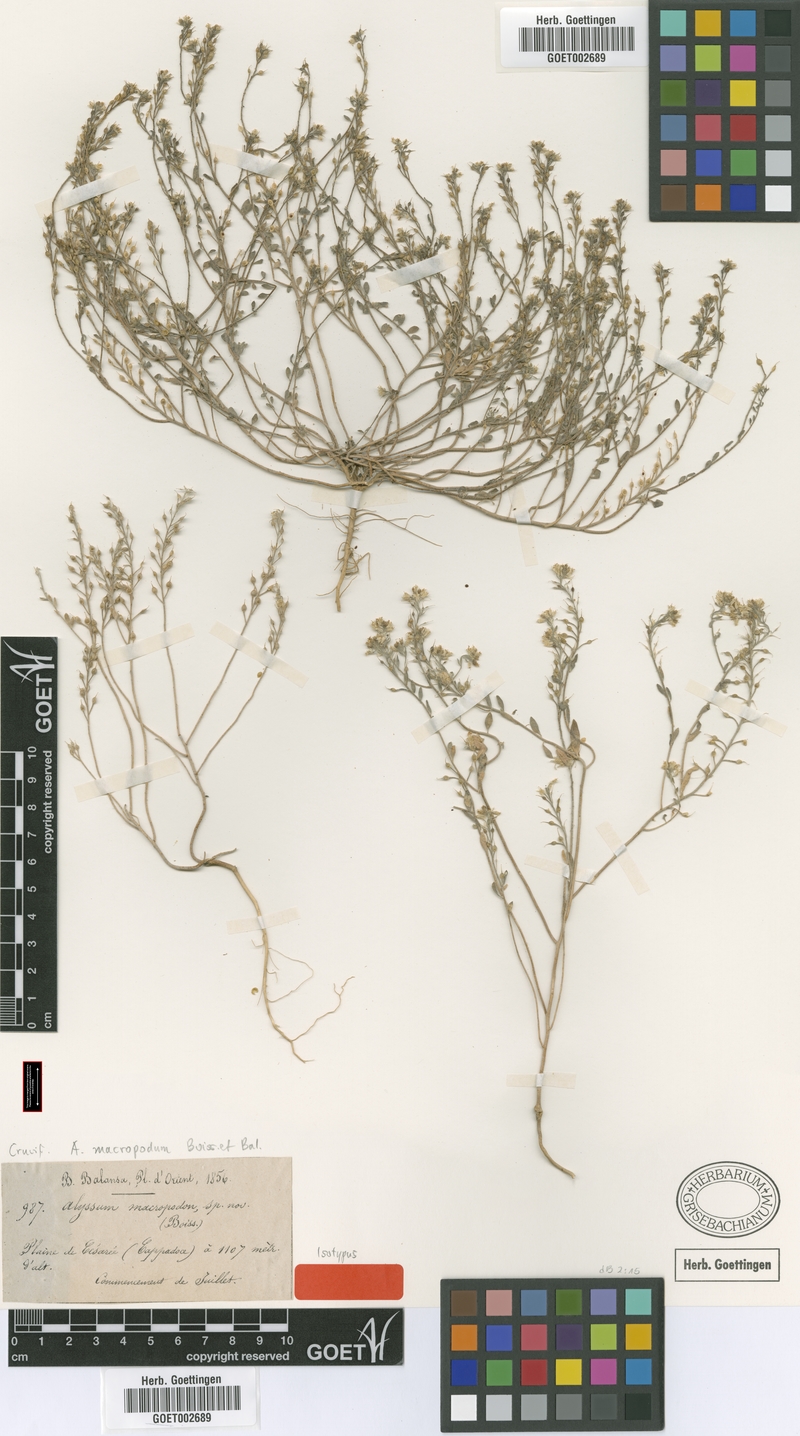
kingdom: Plantae
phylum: Tracheophyta
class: Magnoliopsida
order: Brassicales
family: Brassicaceae
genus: Alyssum
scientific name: Alyssum macropodum
